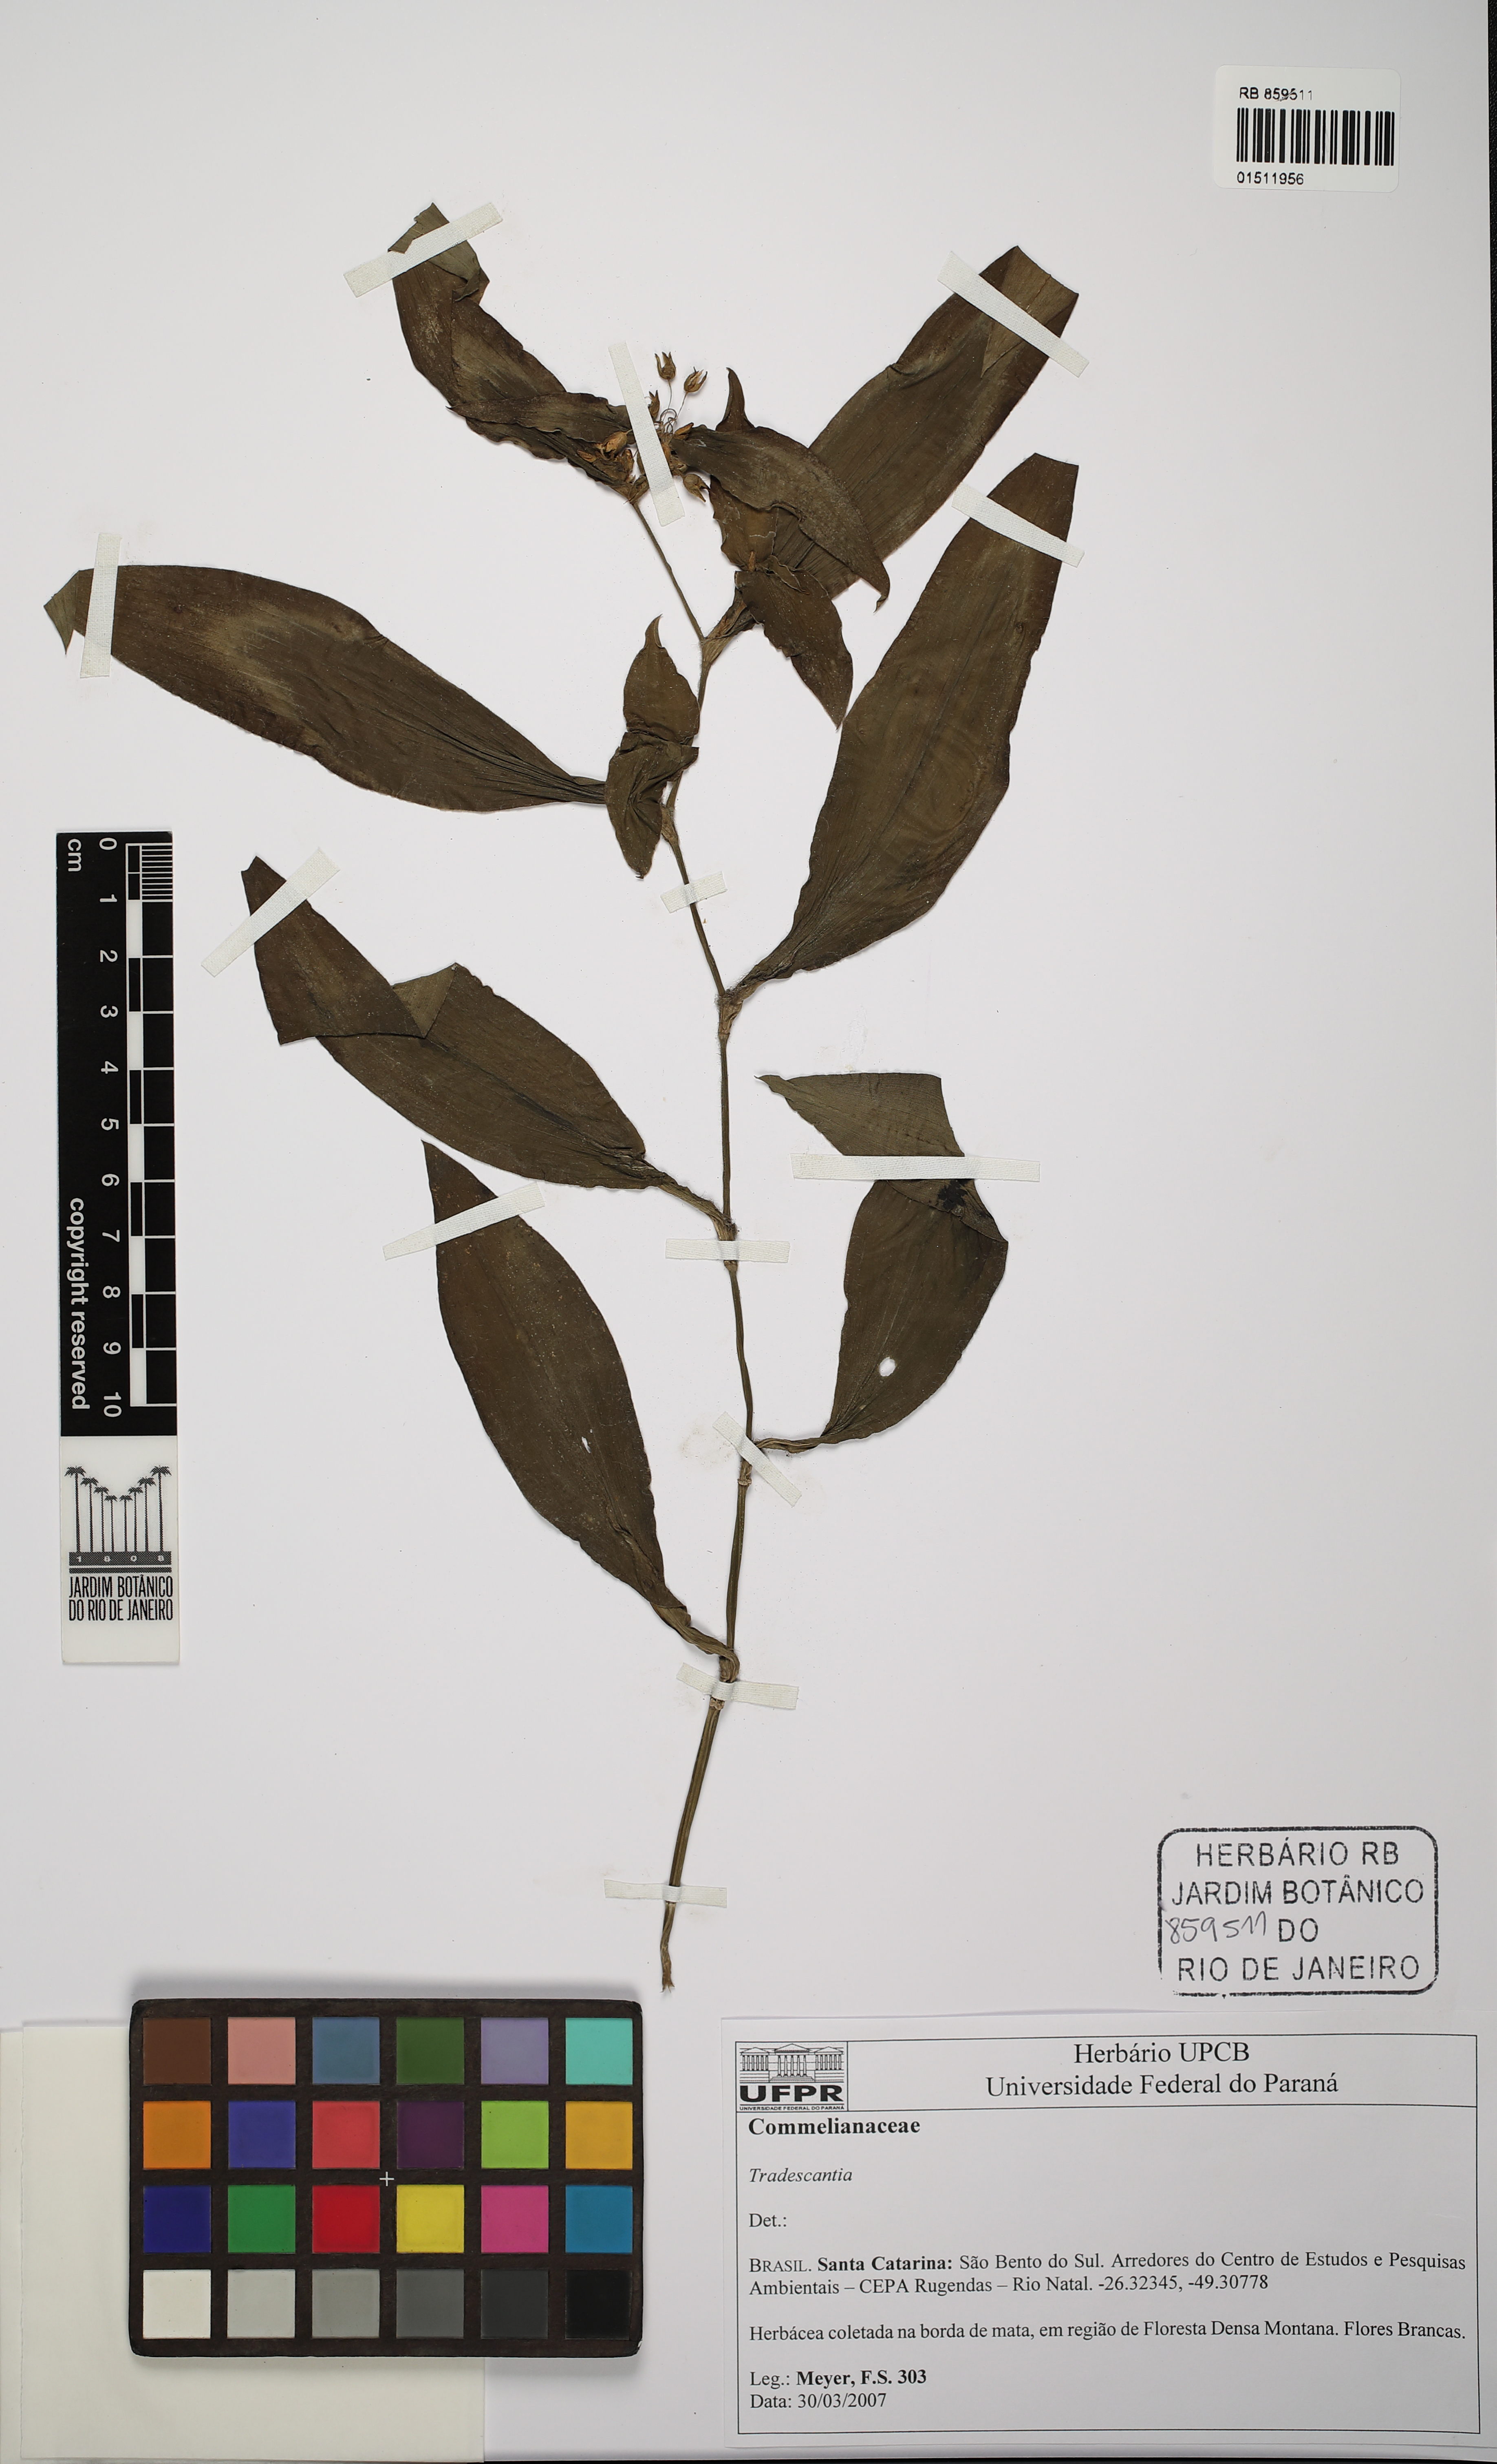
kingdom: Plantae
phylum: Tracheophyta
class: Liliopsida
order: Commelinales
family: Commelinaceae
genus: Tradescantia
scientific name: Tradescantia
